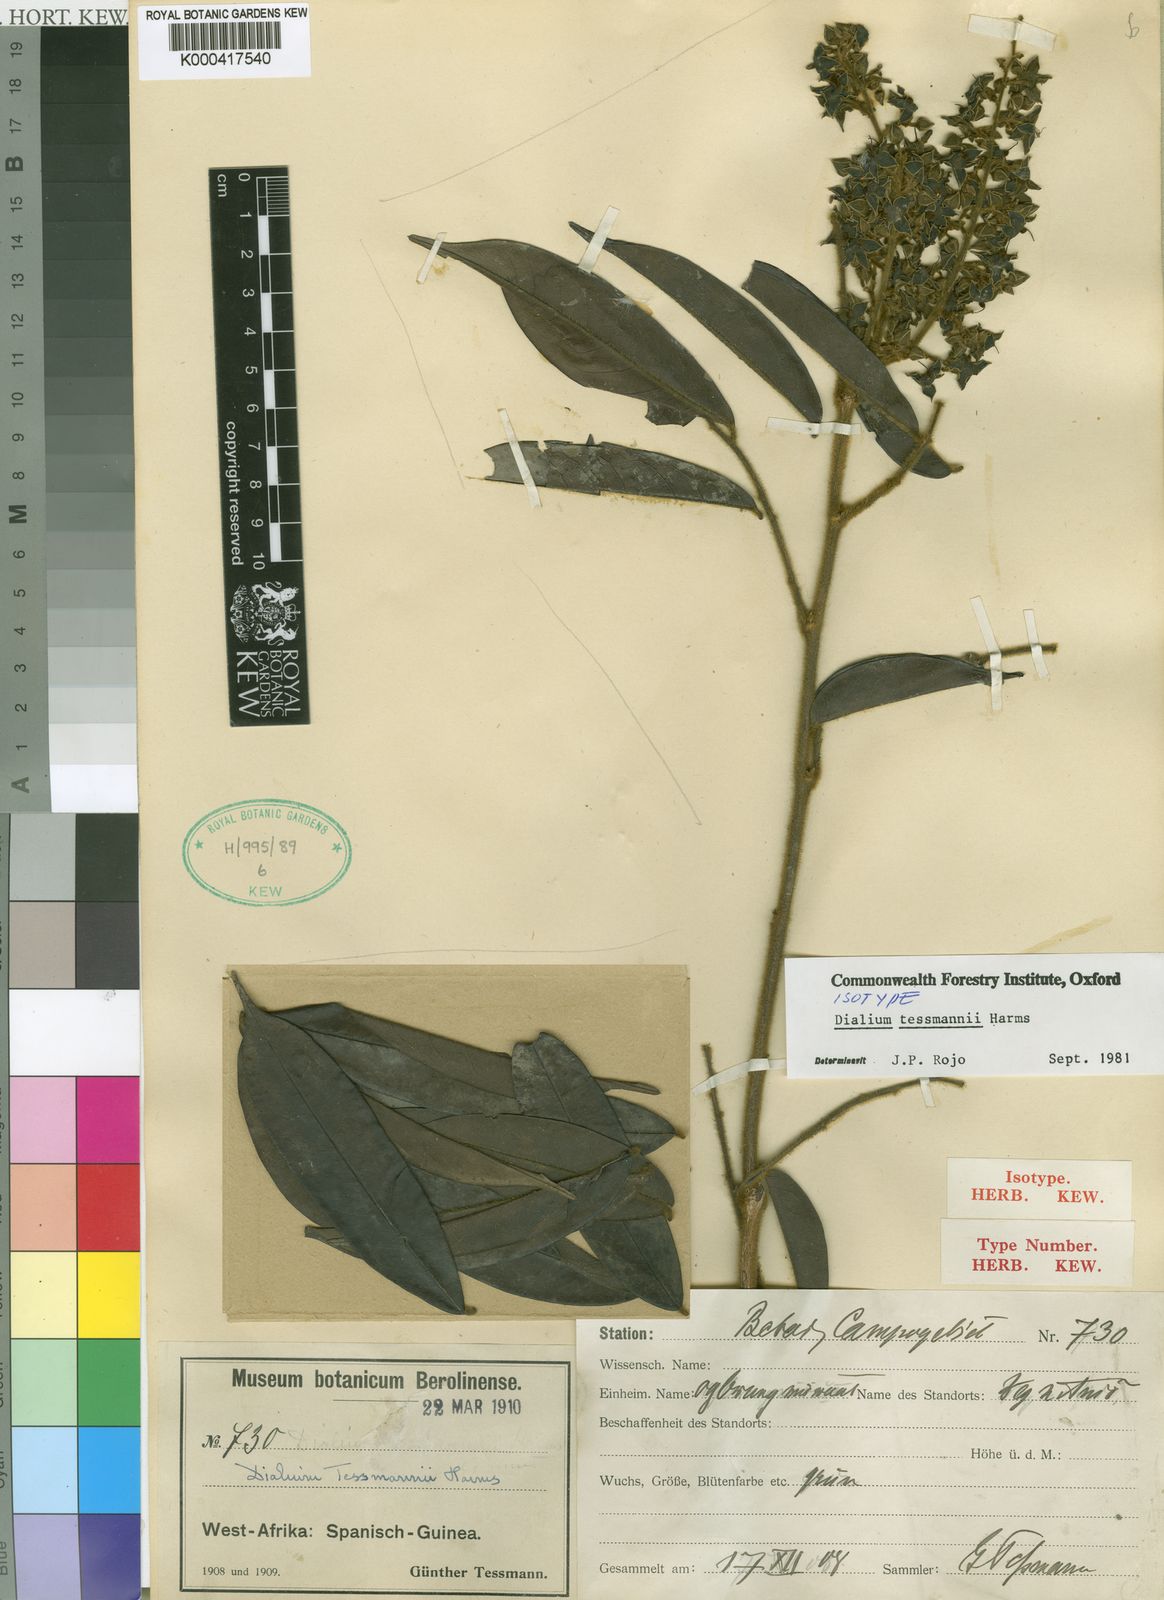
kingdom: Plantae
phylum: Tracheophyta
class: Magnoliopsida
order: Fabales
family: Fabaceae
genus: Dialium
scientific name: Dialium tessmannii
